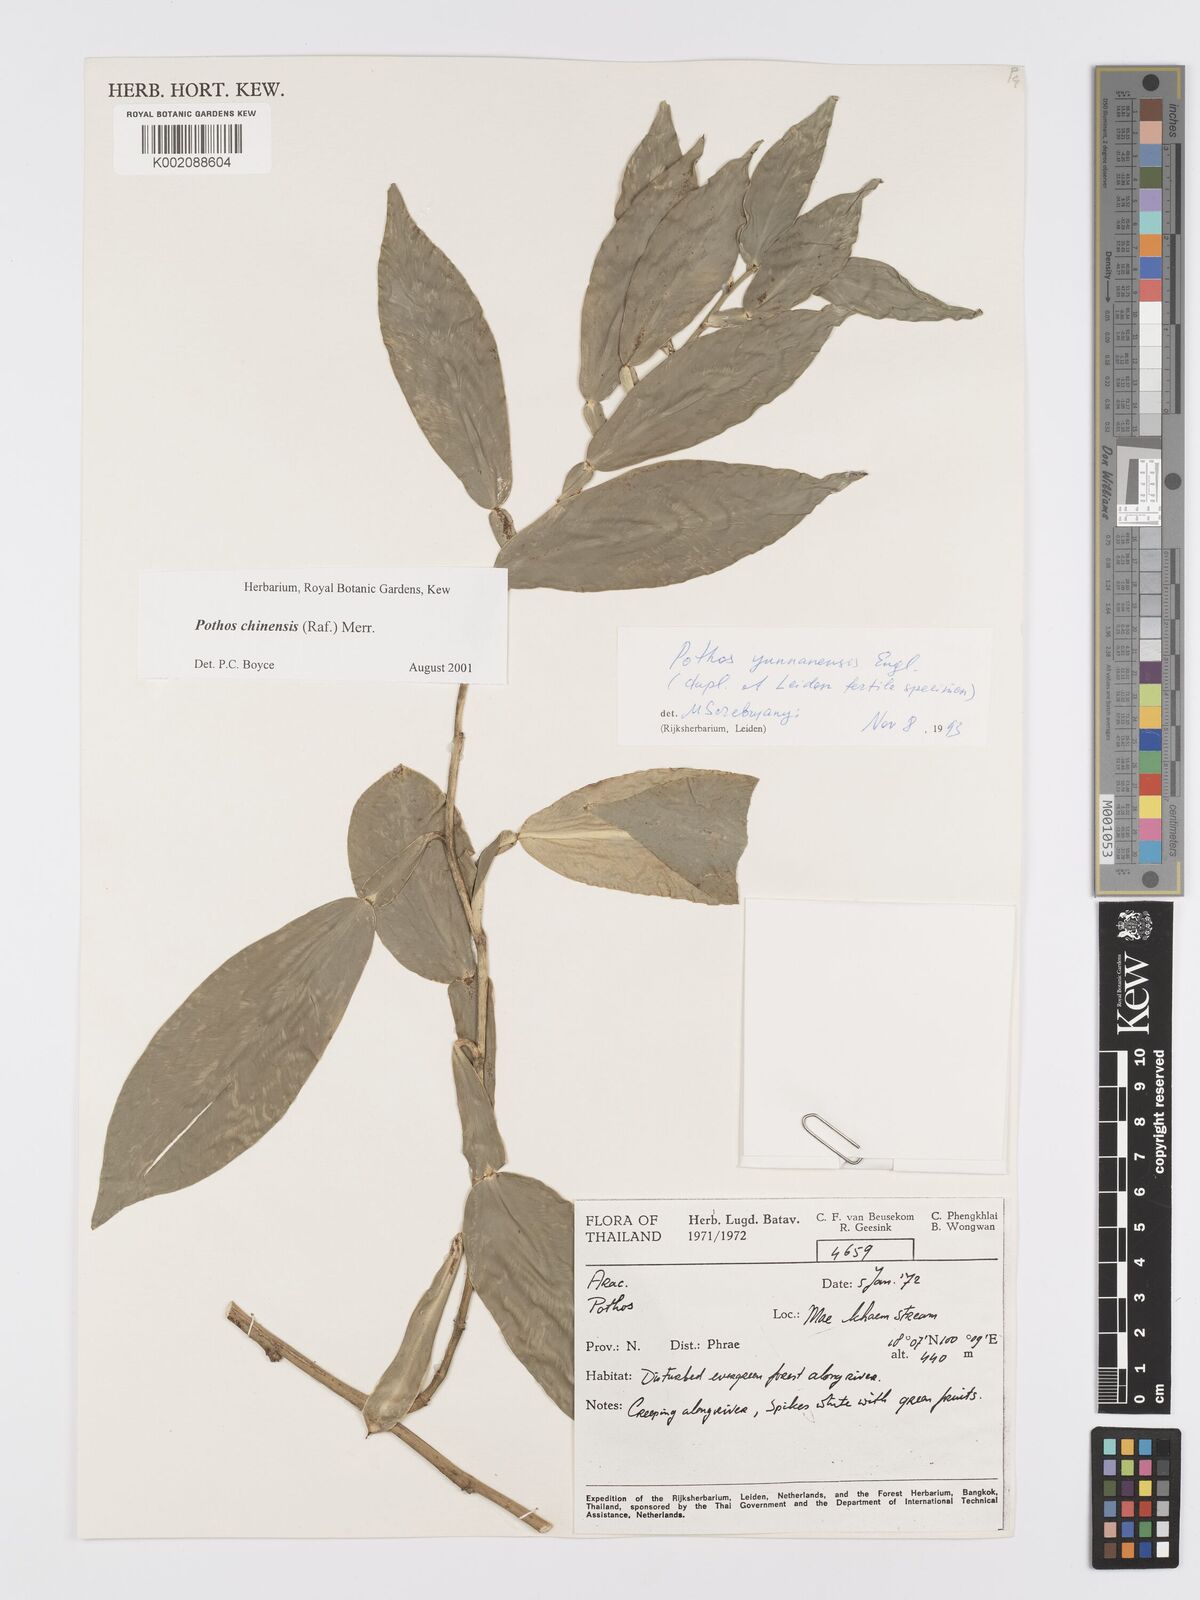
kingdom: Plantae
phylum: Tracheophyta
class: Liliopsida
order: Alismatales
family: Araceae
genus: Pothos
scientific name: Pothos chinensis
